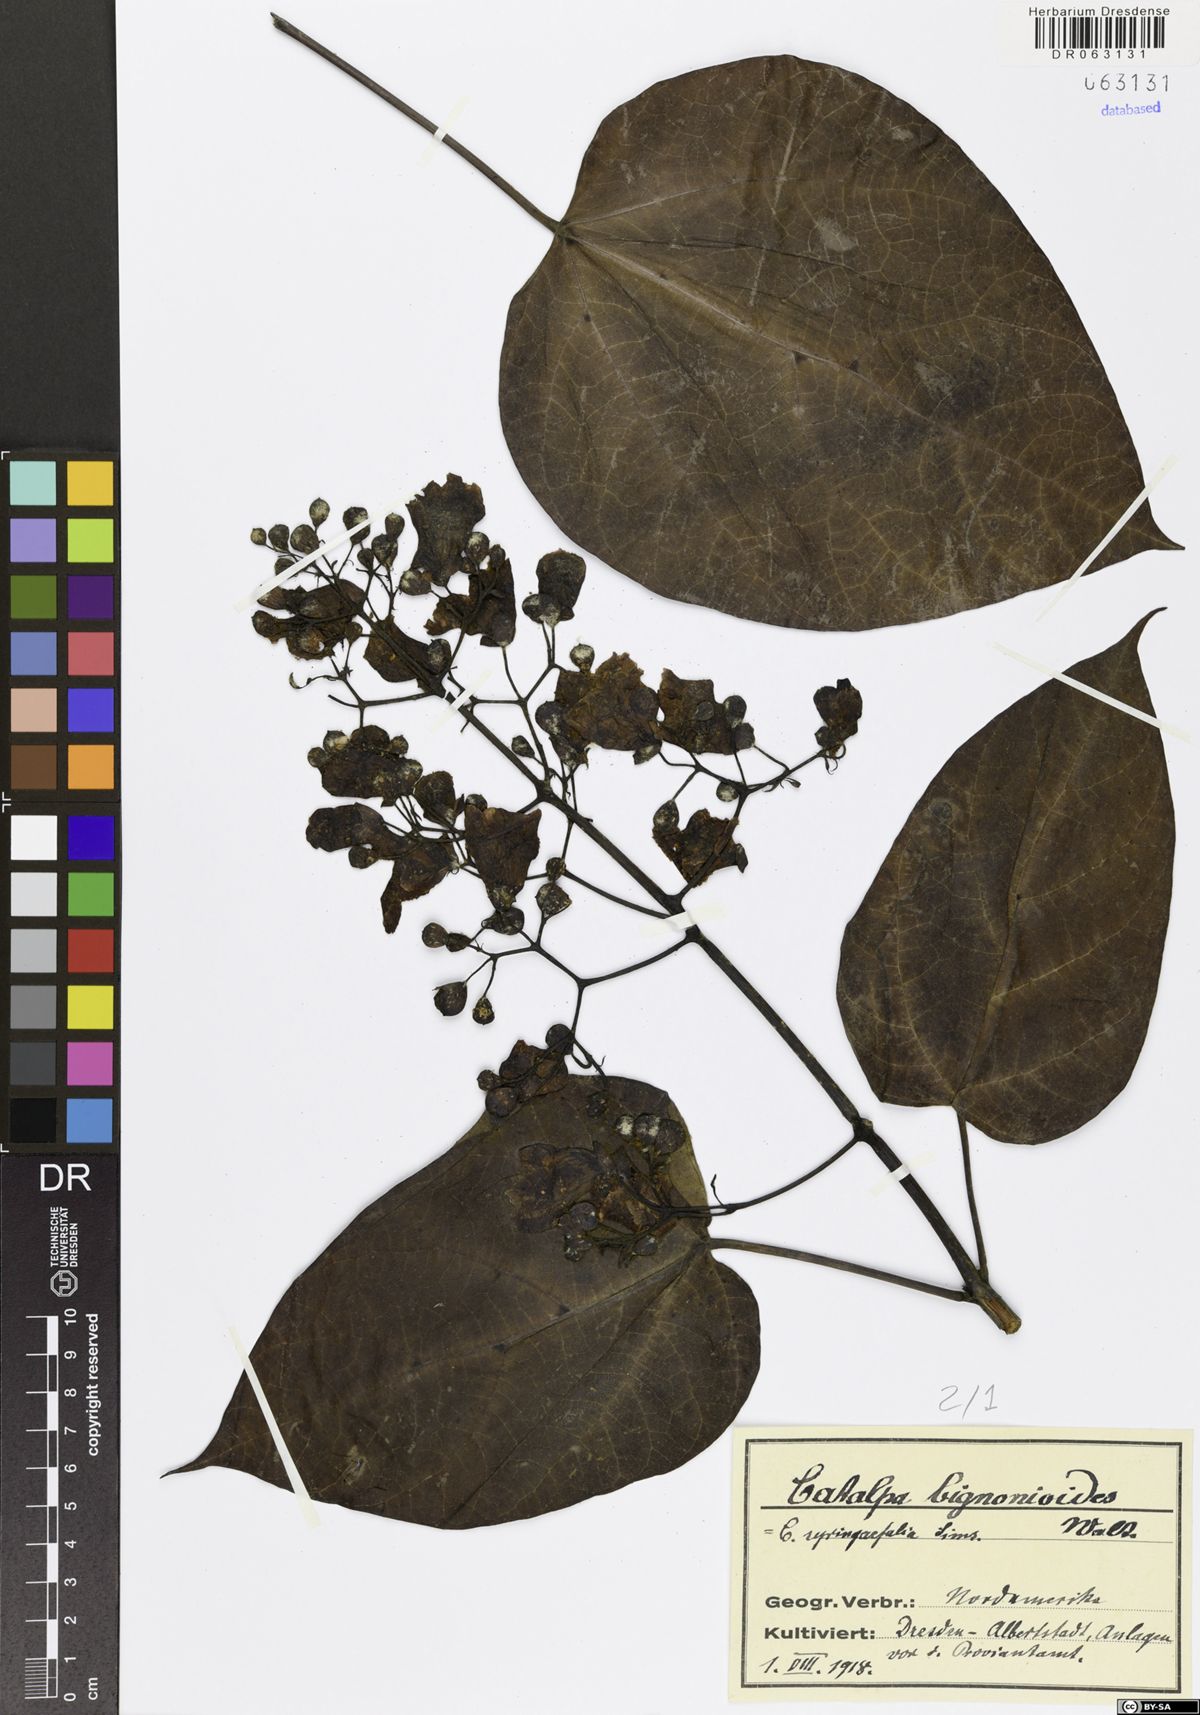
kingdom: Plantae
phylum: Tracheophyta
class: Magnoliopsida
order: Lamiales
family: Bignoniaceae
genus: Catalpa
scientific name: Catalpa bignonioides
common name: Southern catalpa
